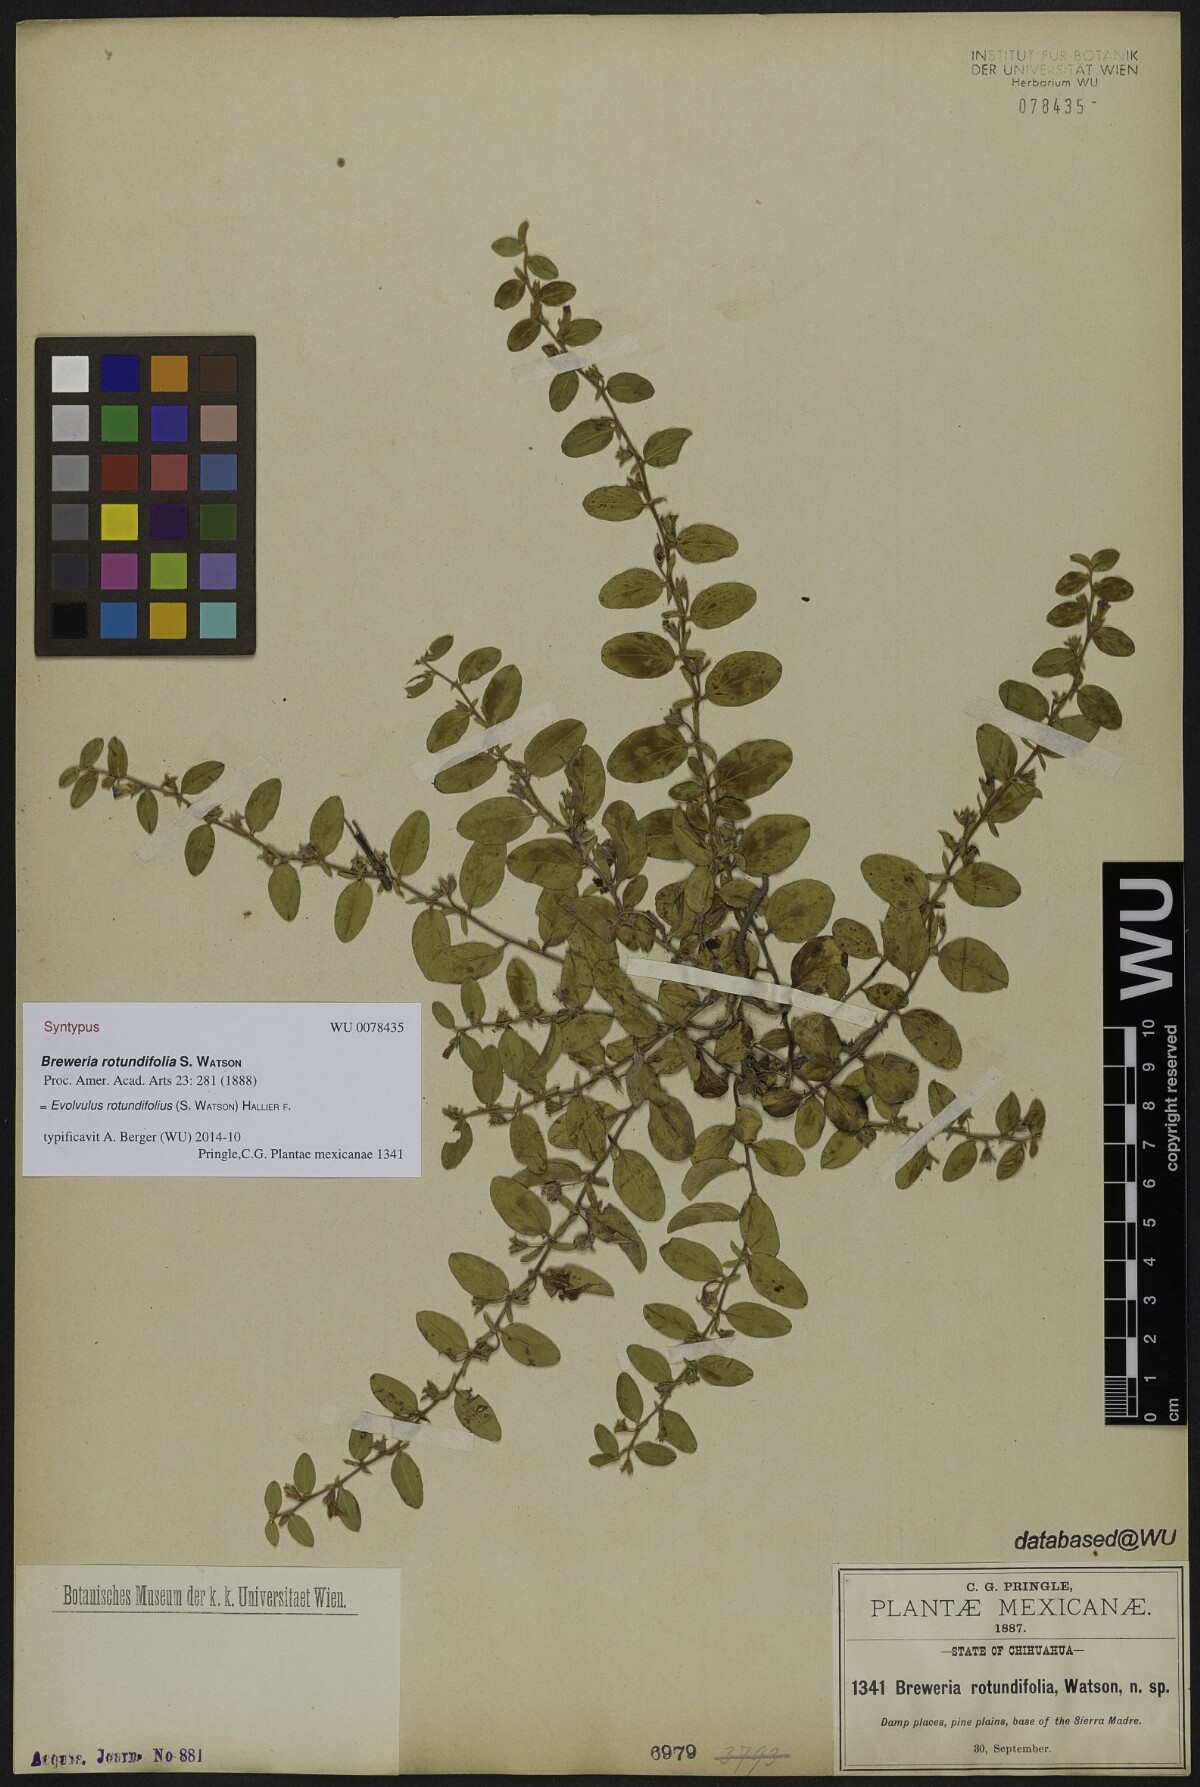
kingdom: Plantae
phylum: Tracheophyta
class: Magnoliopsida
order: Solanales
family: Convolvulaceae
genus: Evolvulus
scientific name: Evolvulus rotundifolius
